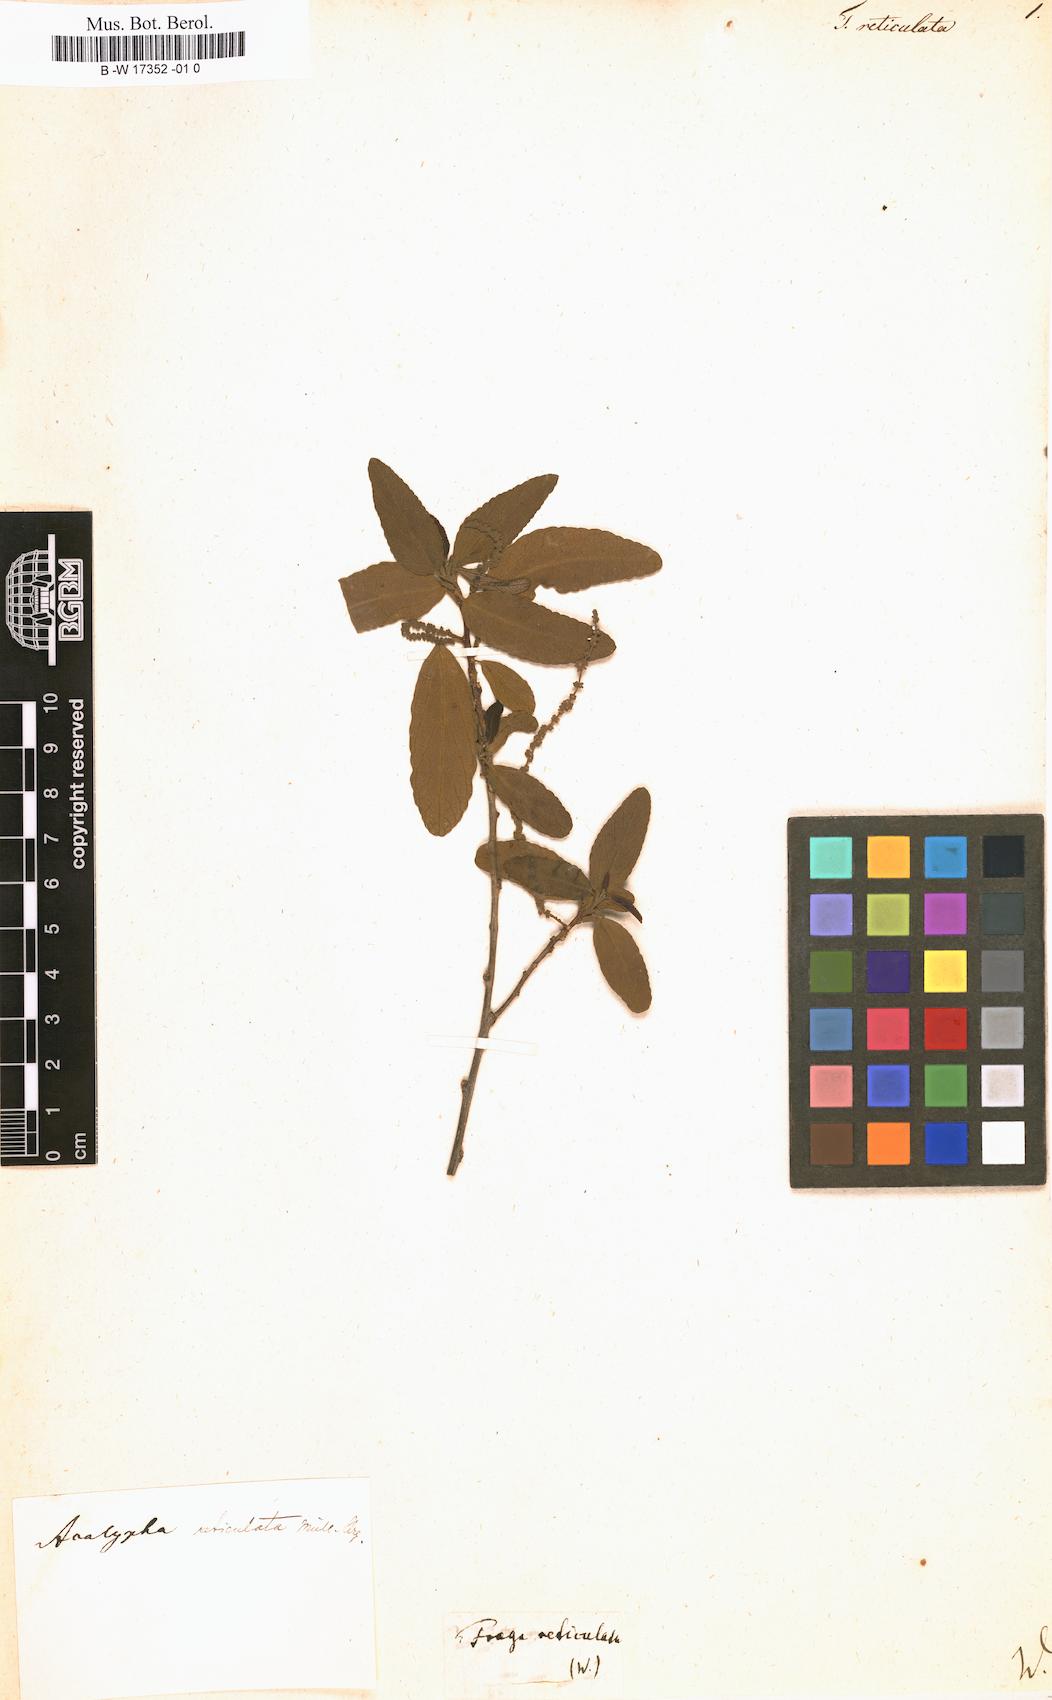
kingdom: Plantae
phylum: Tracheophyta
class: Magnoliopsida
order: Malpighiales
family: Euphorbiaceae
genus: Acalypha
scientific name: Acalypha filiformis
